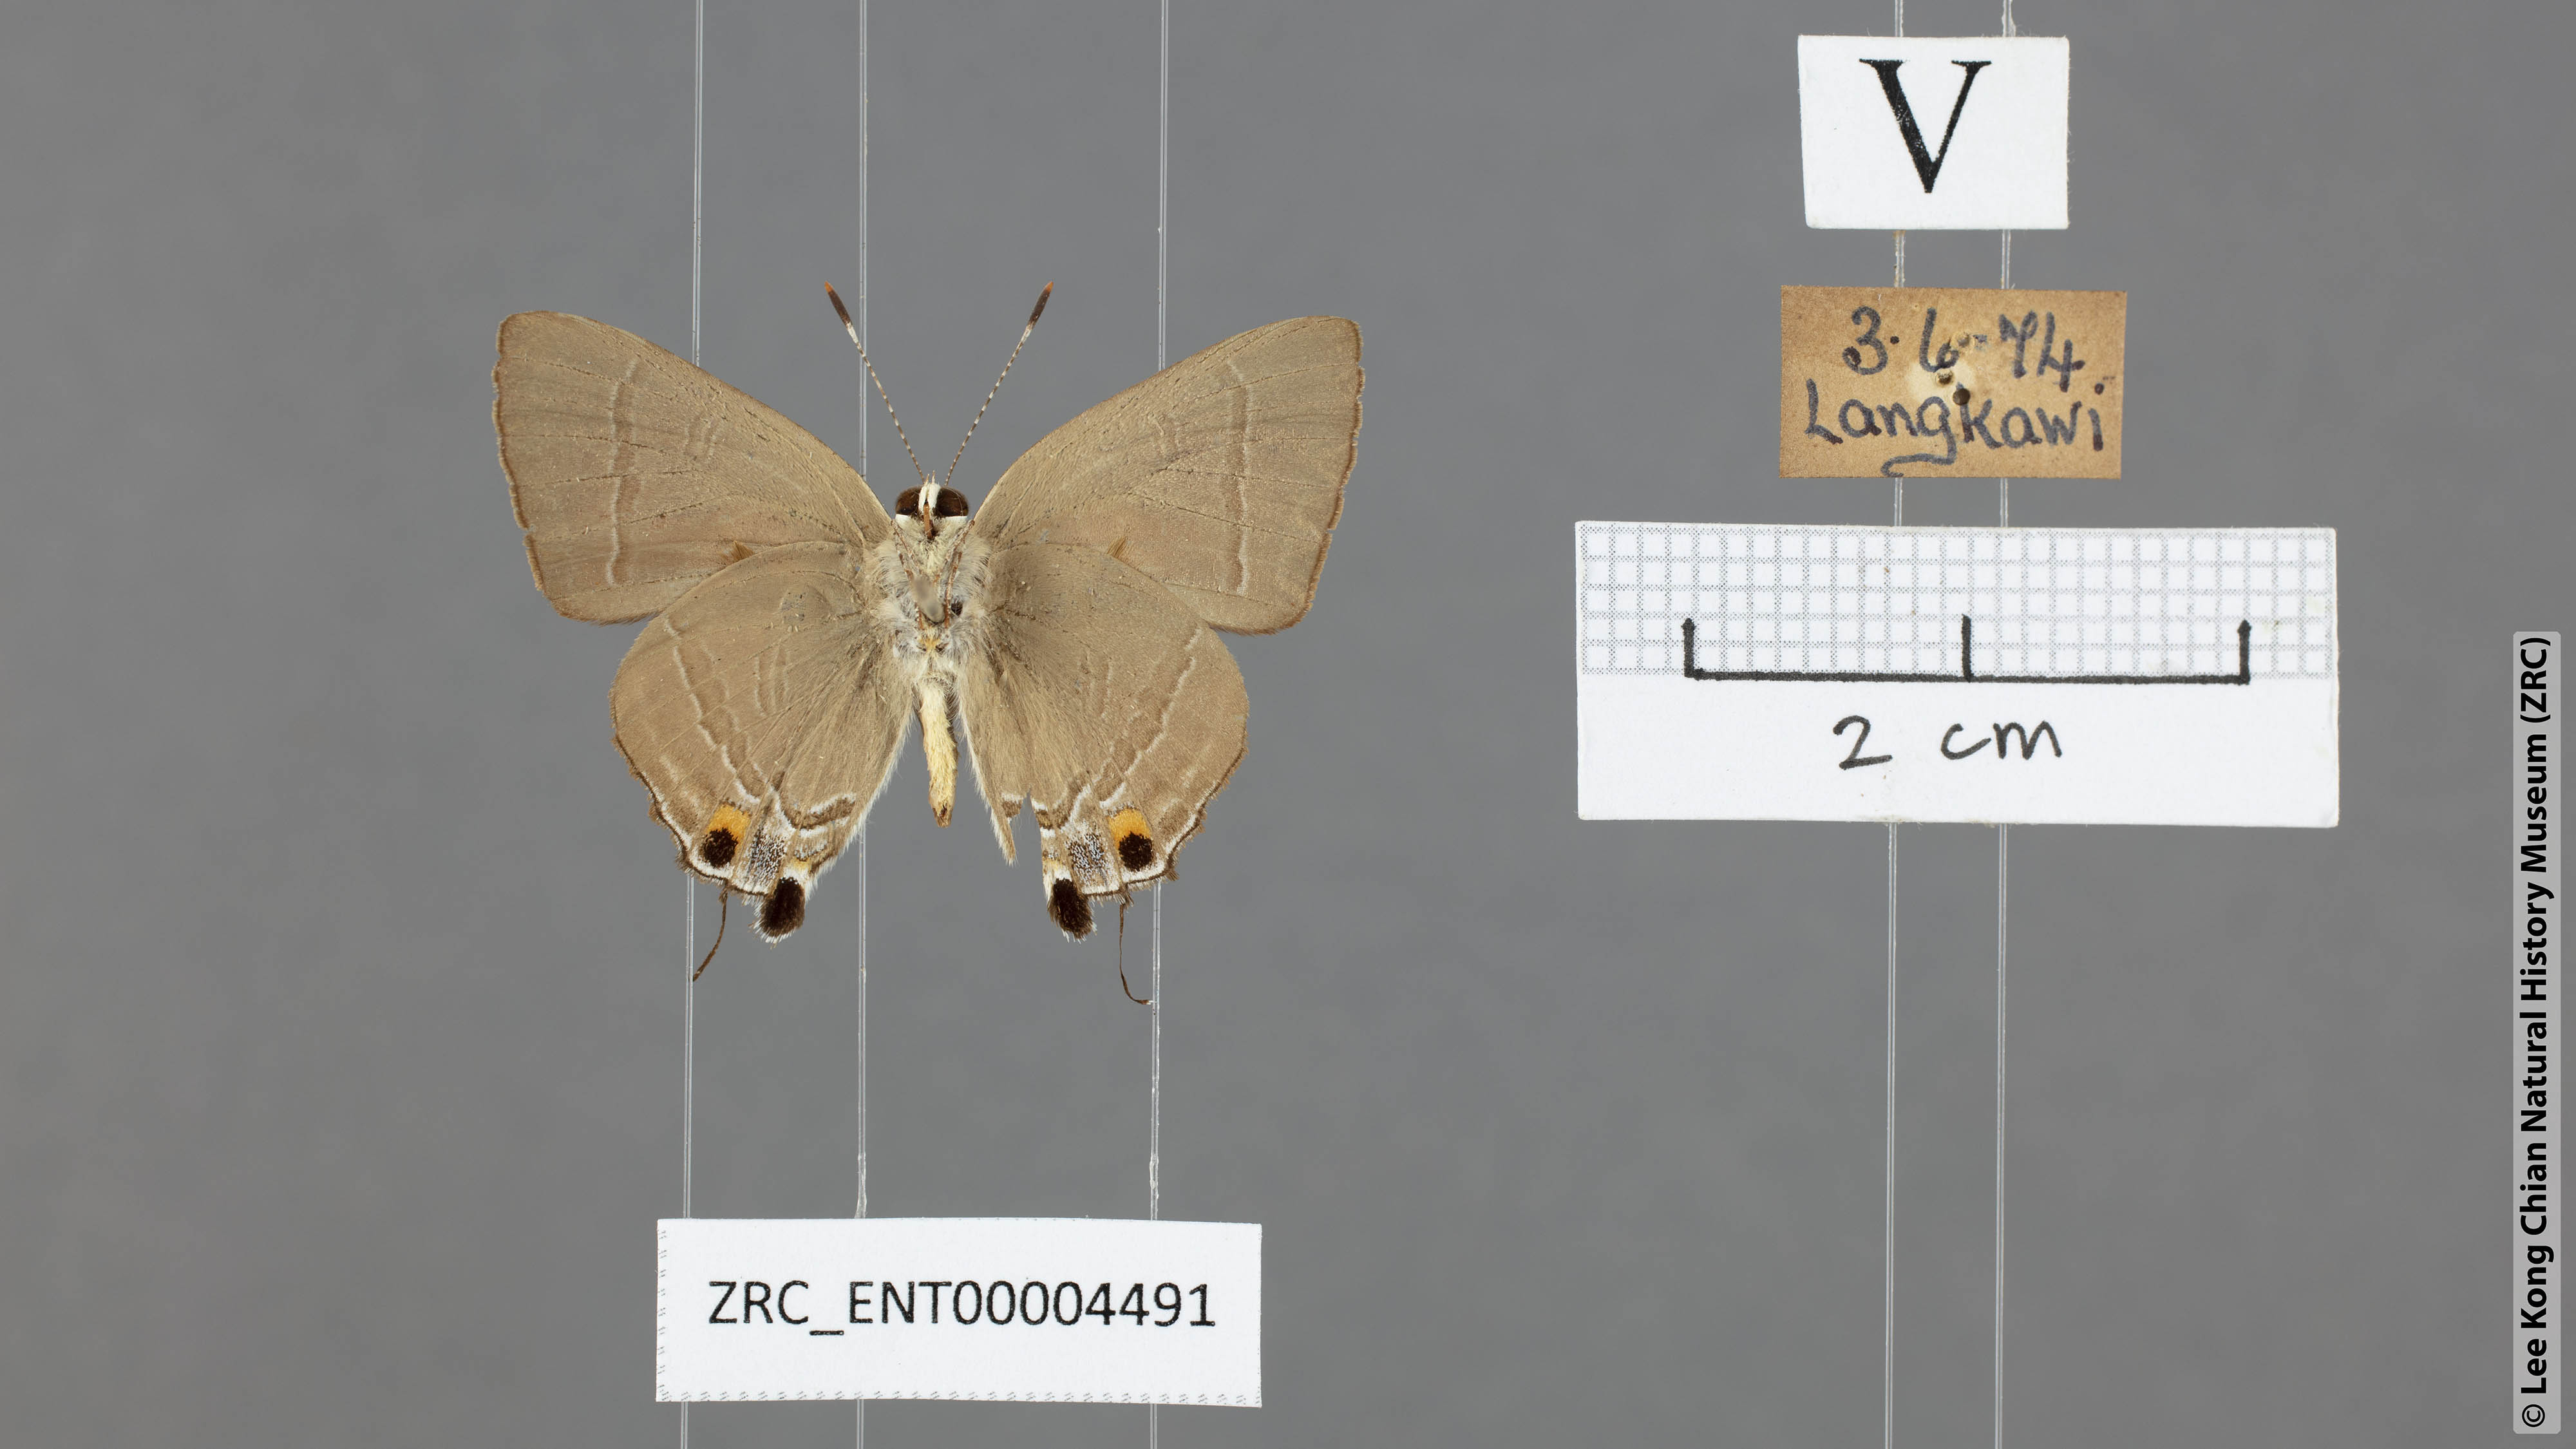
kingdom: Animalia
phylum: Arthropoda
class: Insecta
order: Lepidoptera
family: Lycaenidae
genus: Rapala
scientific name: Rapala iarbas
